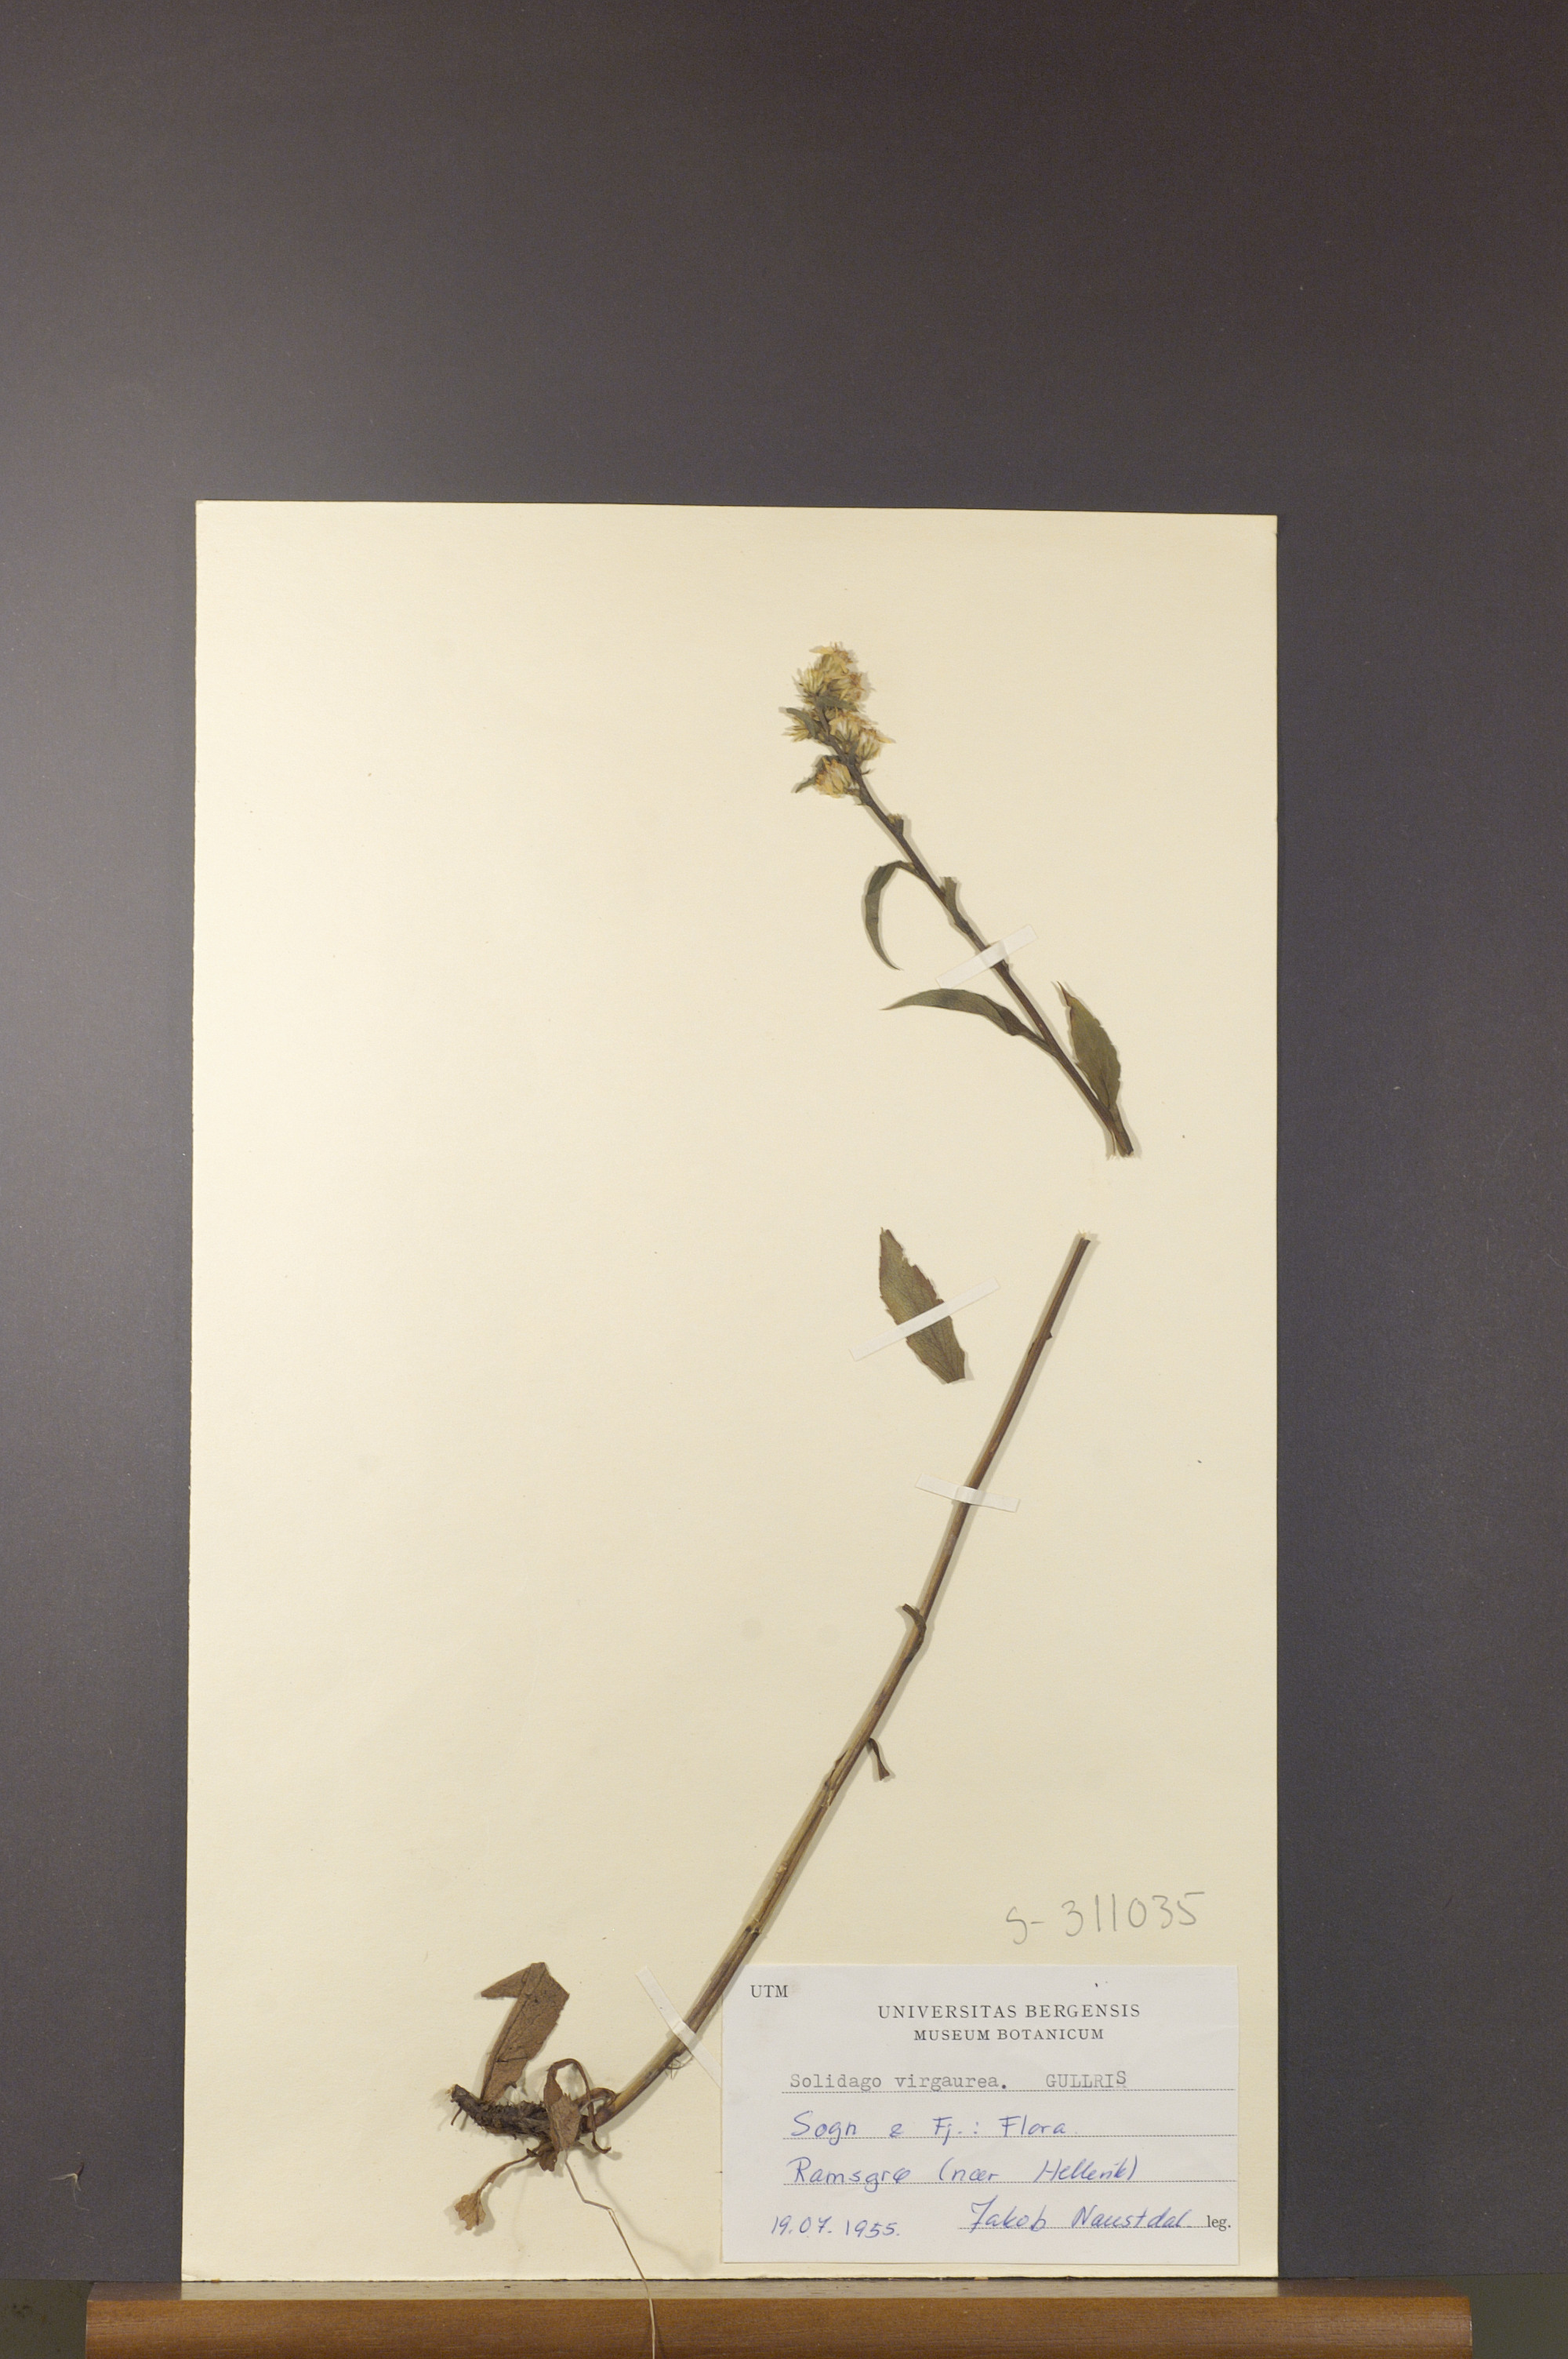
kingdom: Plantae
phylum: Tracheophyta
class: Magnoliopsida
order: Asterales
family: Asteraceae
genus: Solidago
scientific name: Solidago virgaurea
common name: Goldenrod
